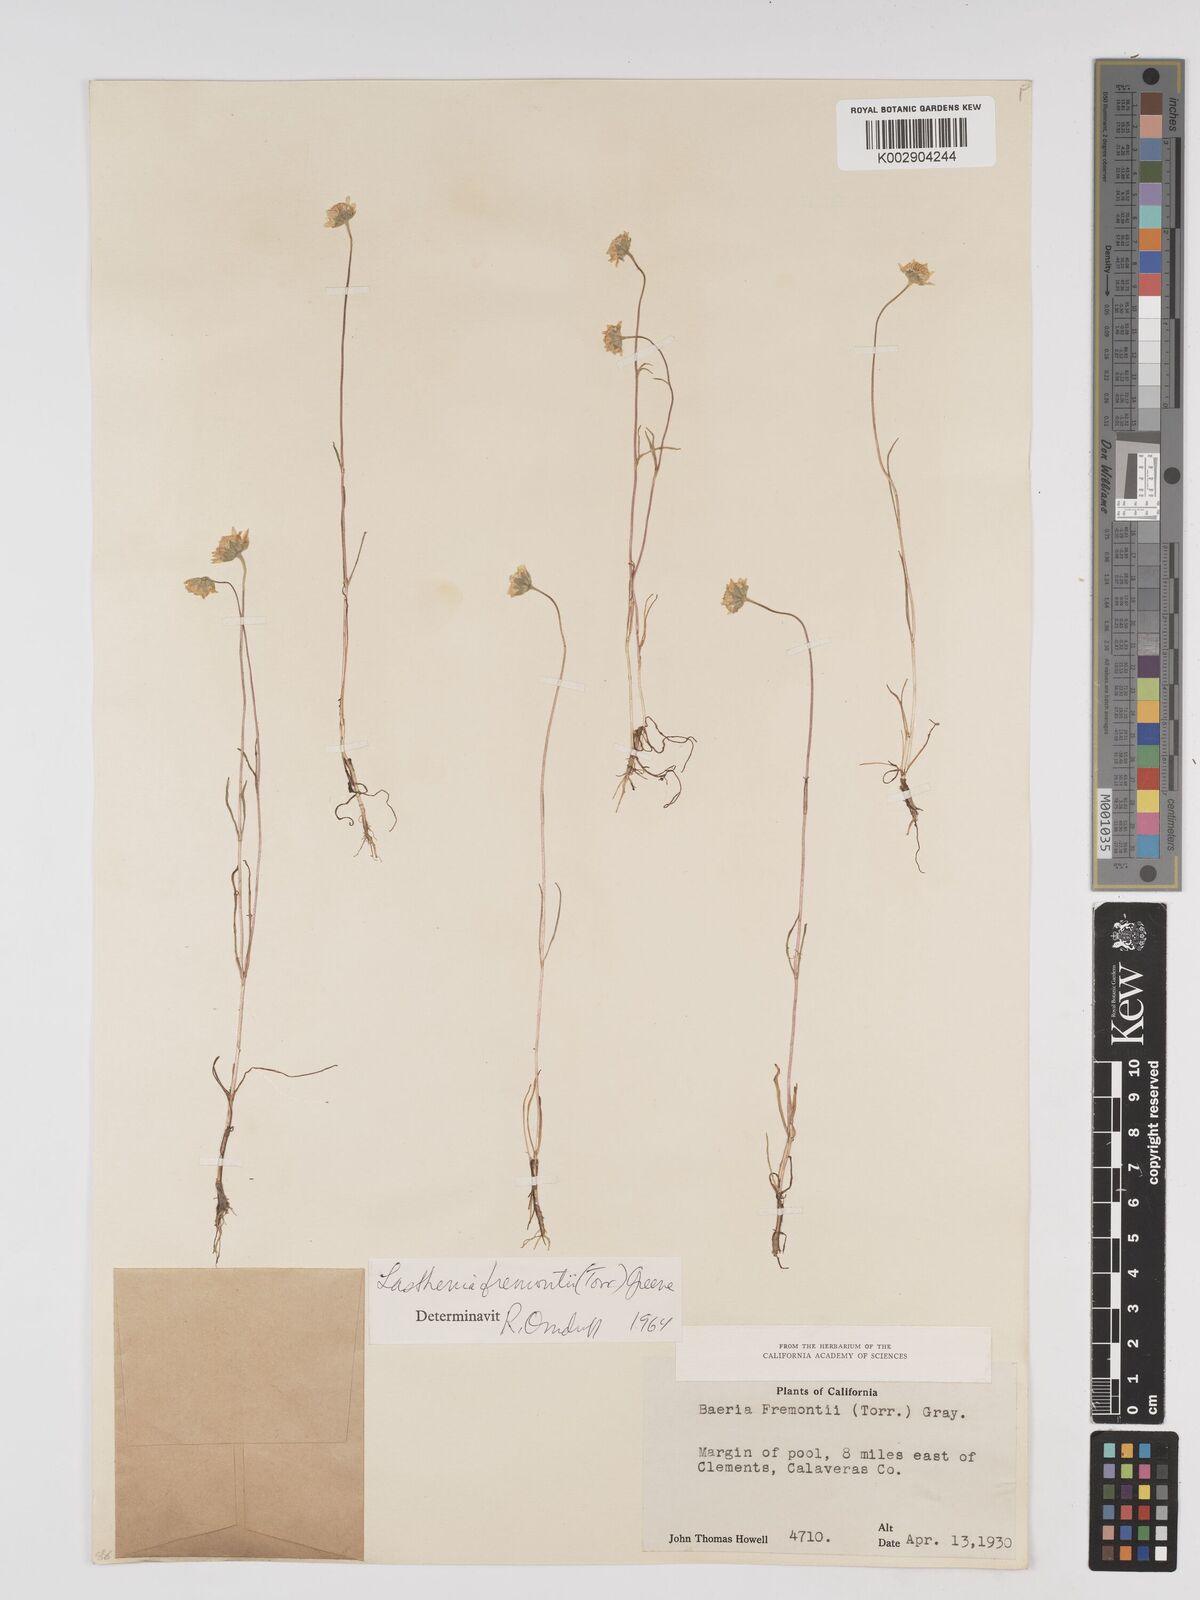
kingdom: Plantae
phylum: Tracheophyta
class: Magnoliopsida
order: Asterales
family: Asteraceae
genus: Lasthenia
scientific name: Lasthenia fremontii
